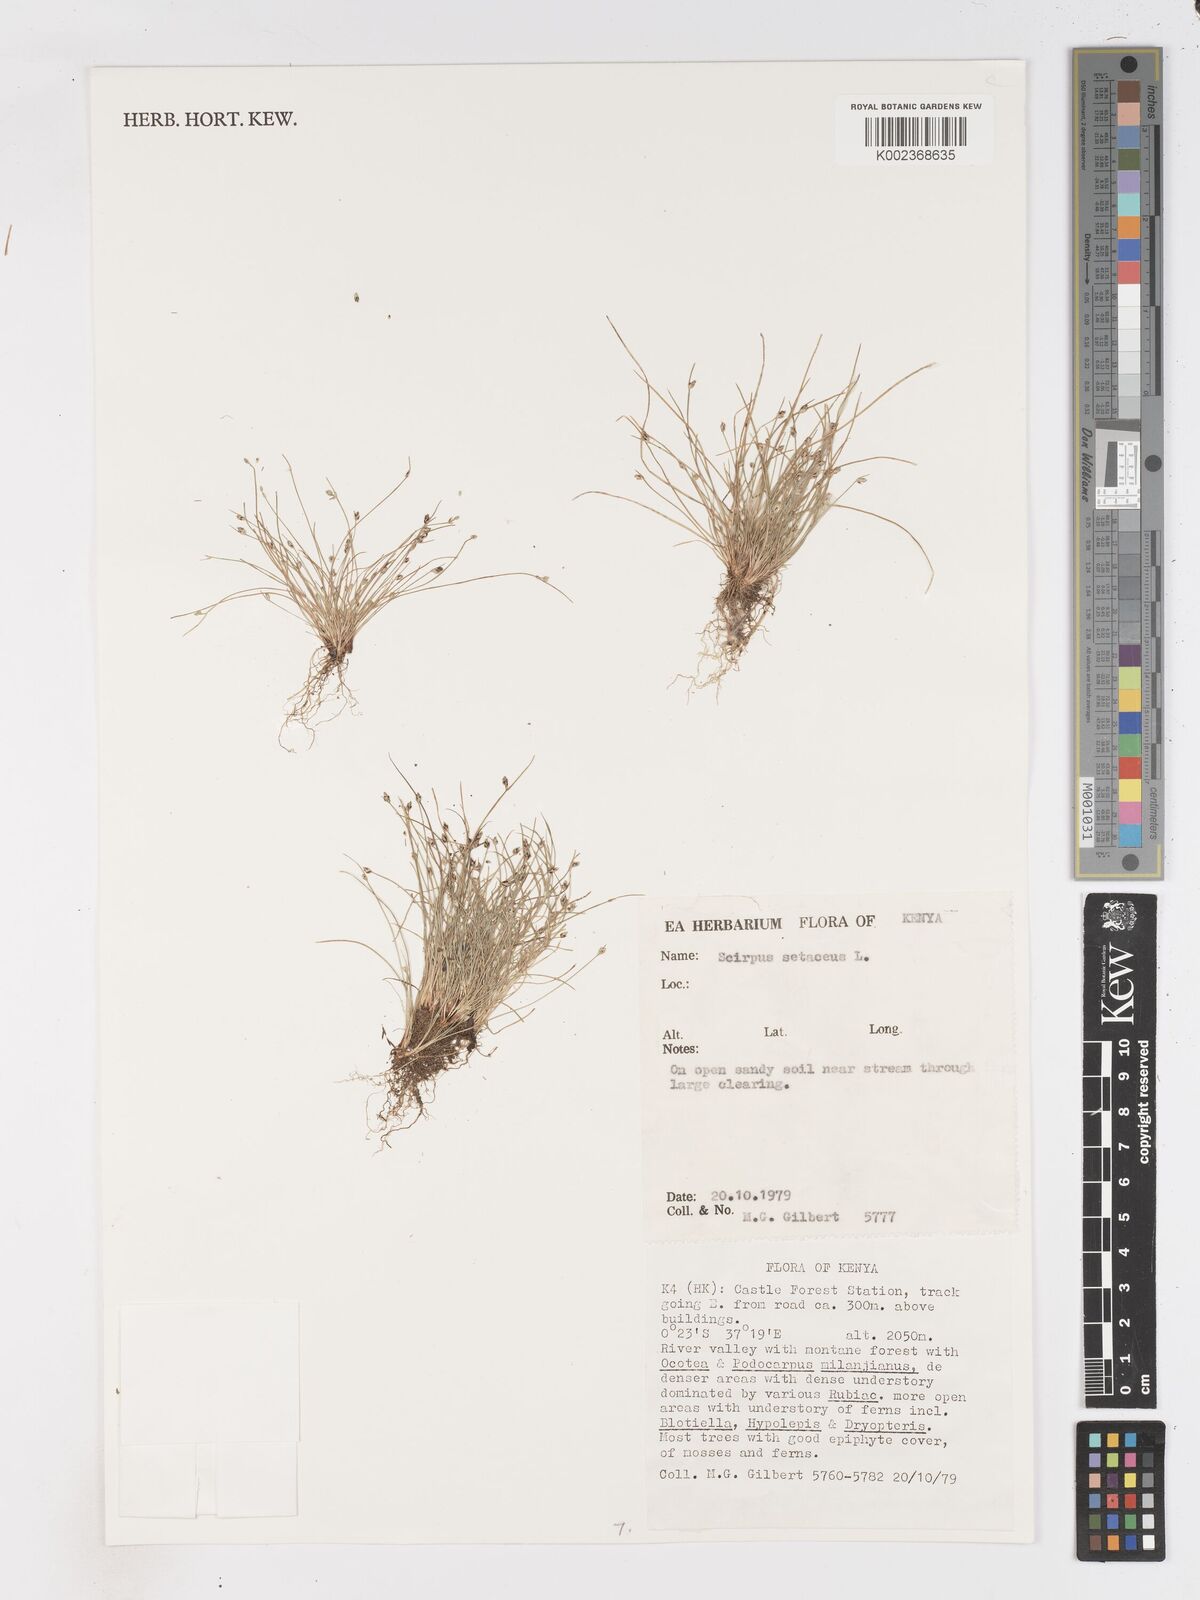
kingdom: Plantae
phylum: Tracheophyta
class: Liliopsida
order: Poales
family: Cyperaceae
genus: Isolepis
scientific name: Isolepis setacea
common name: Bristle club-rush
